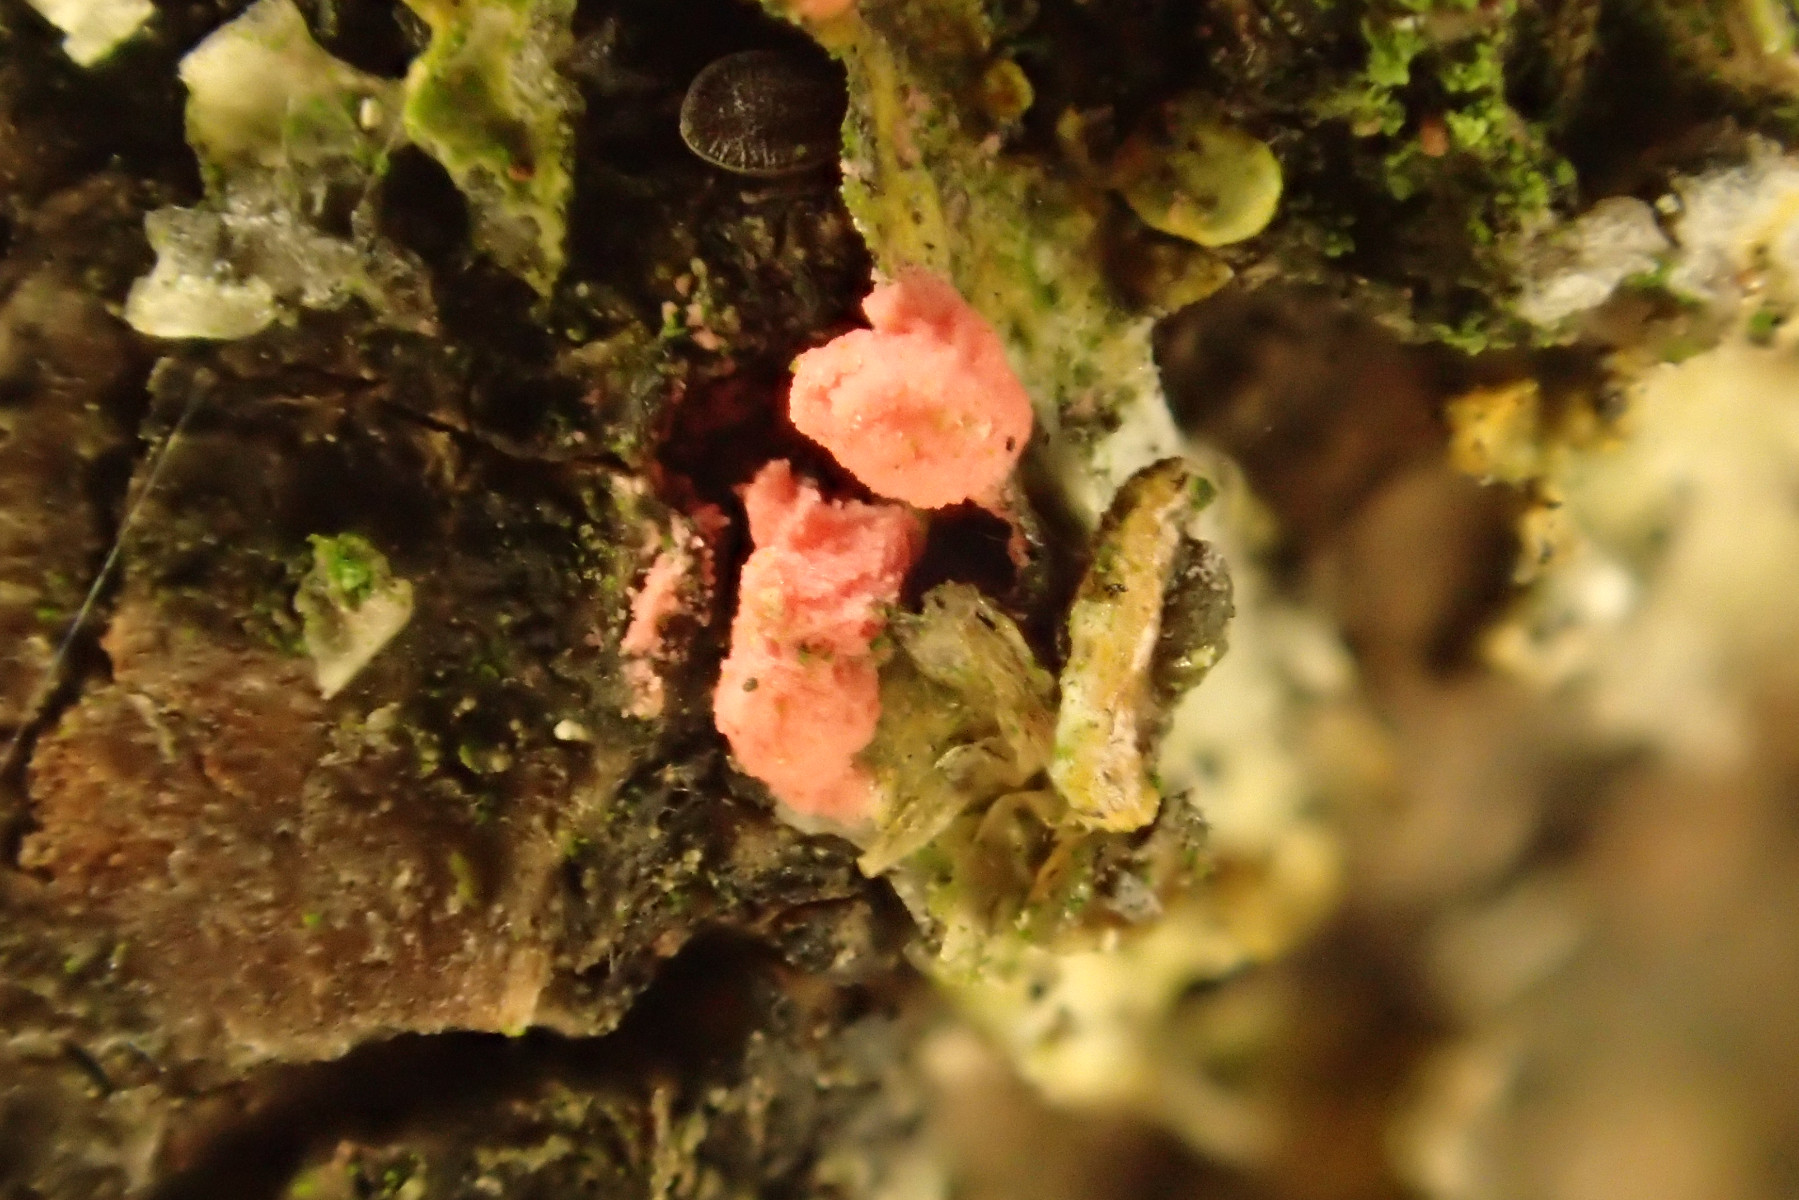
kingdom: Fungi
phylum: Ascomycota
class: Sordariomycetes
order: Hypocreales
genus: Illosporiopsis
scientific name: Illosporiopsis christiansenii
